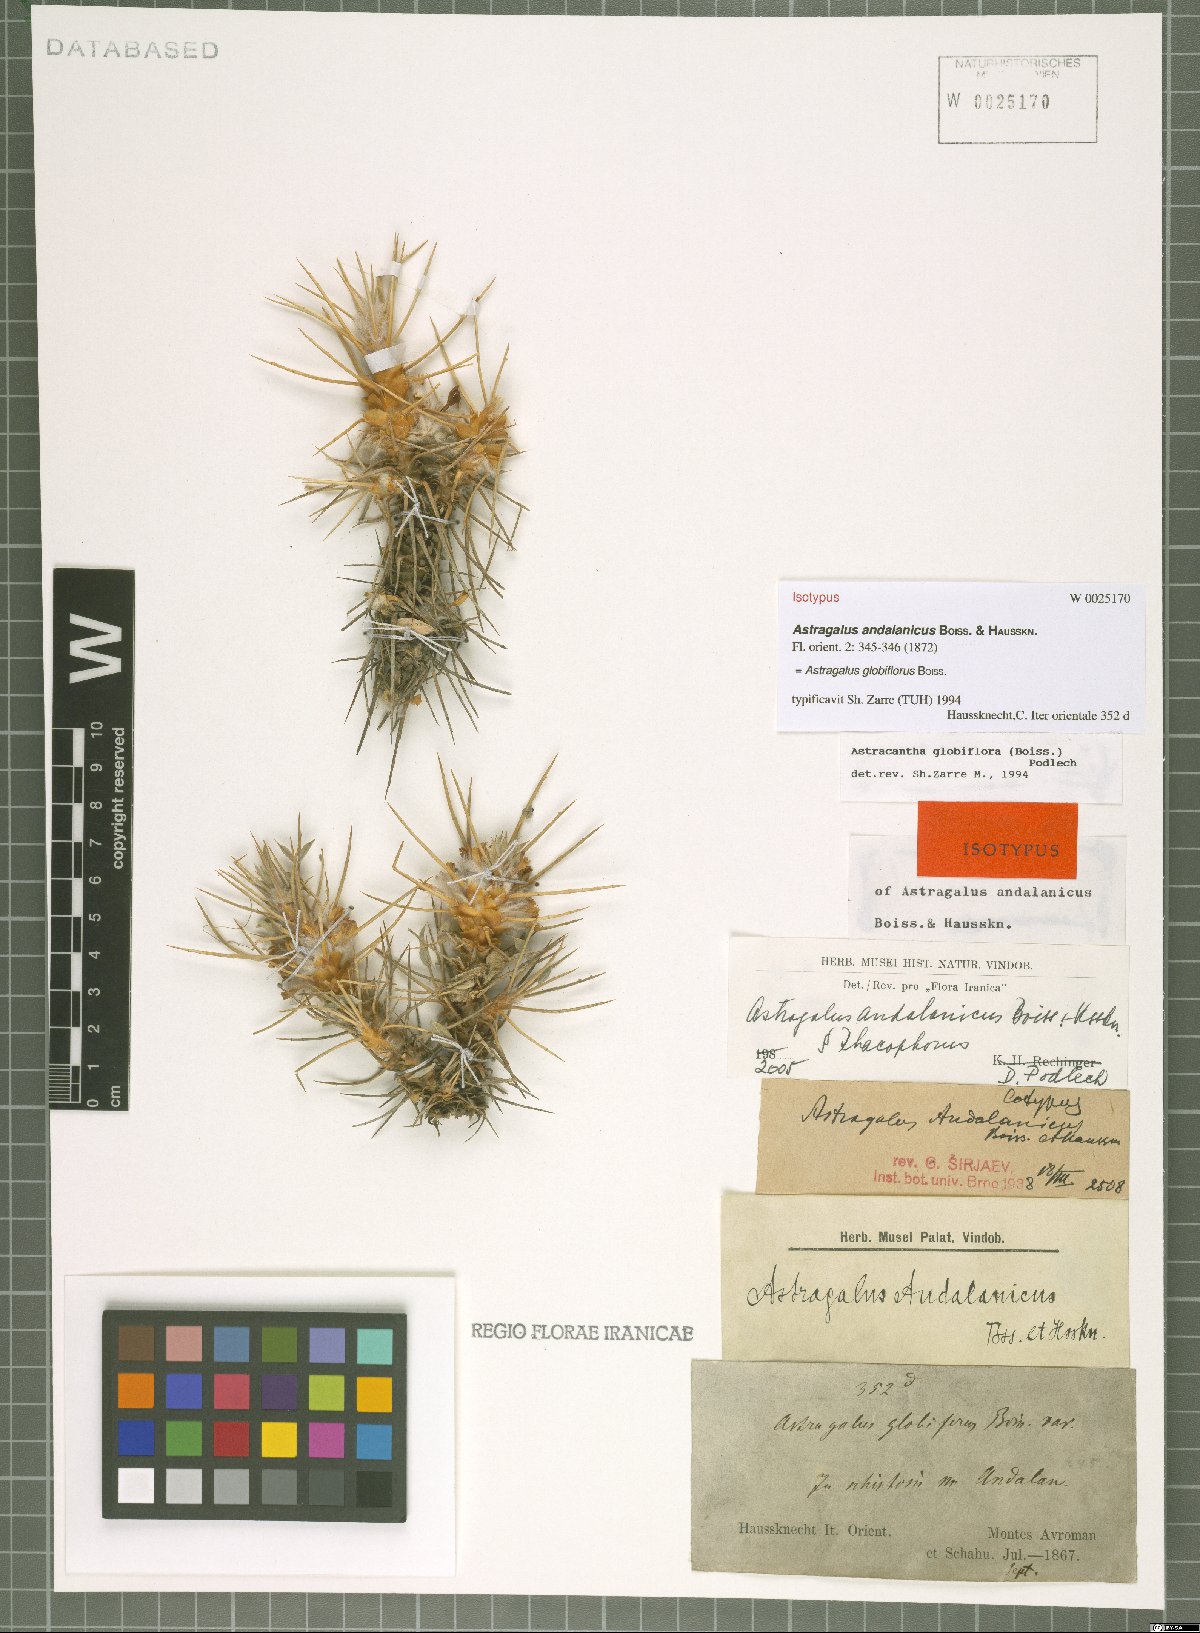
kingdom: Plantae
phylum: Tracheophyta
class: Magnoliopsida
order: Fabales
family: Fabaceae
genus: Astragalus
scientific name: Astragalus globiflorus
